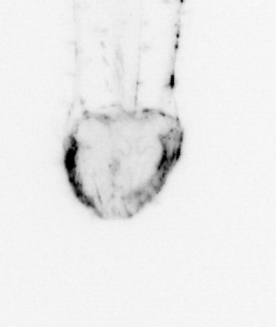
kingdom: Animalia
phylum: Chaetognatha
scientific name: Chaetognatha
